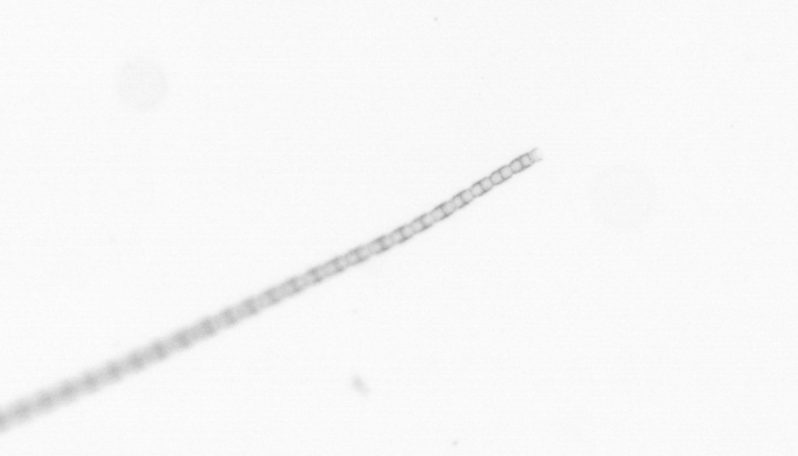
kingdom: Chromista
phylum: Ochrophyta
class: Bacillariophyceae
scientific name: Bacillariophyceae
